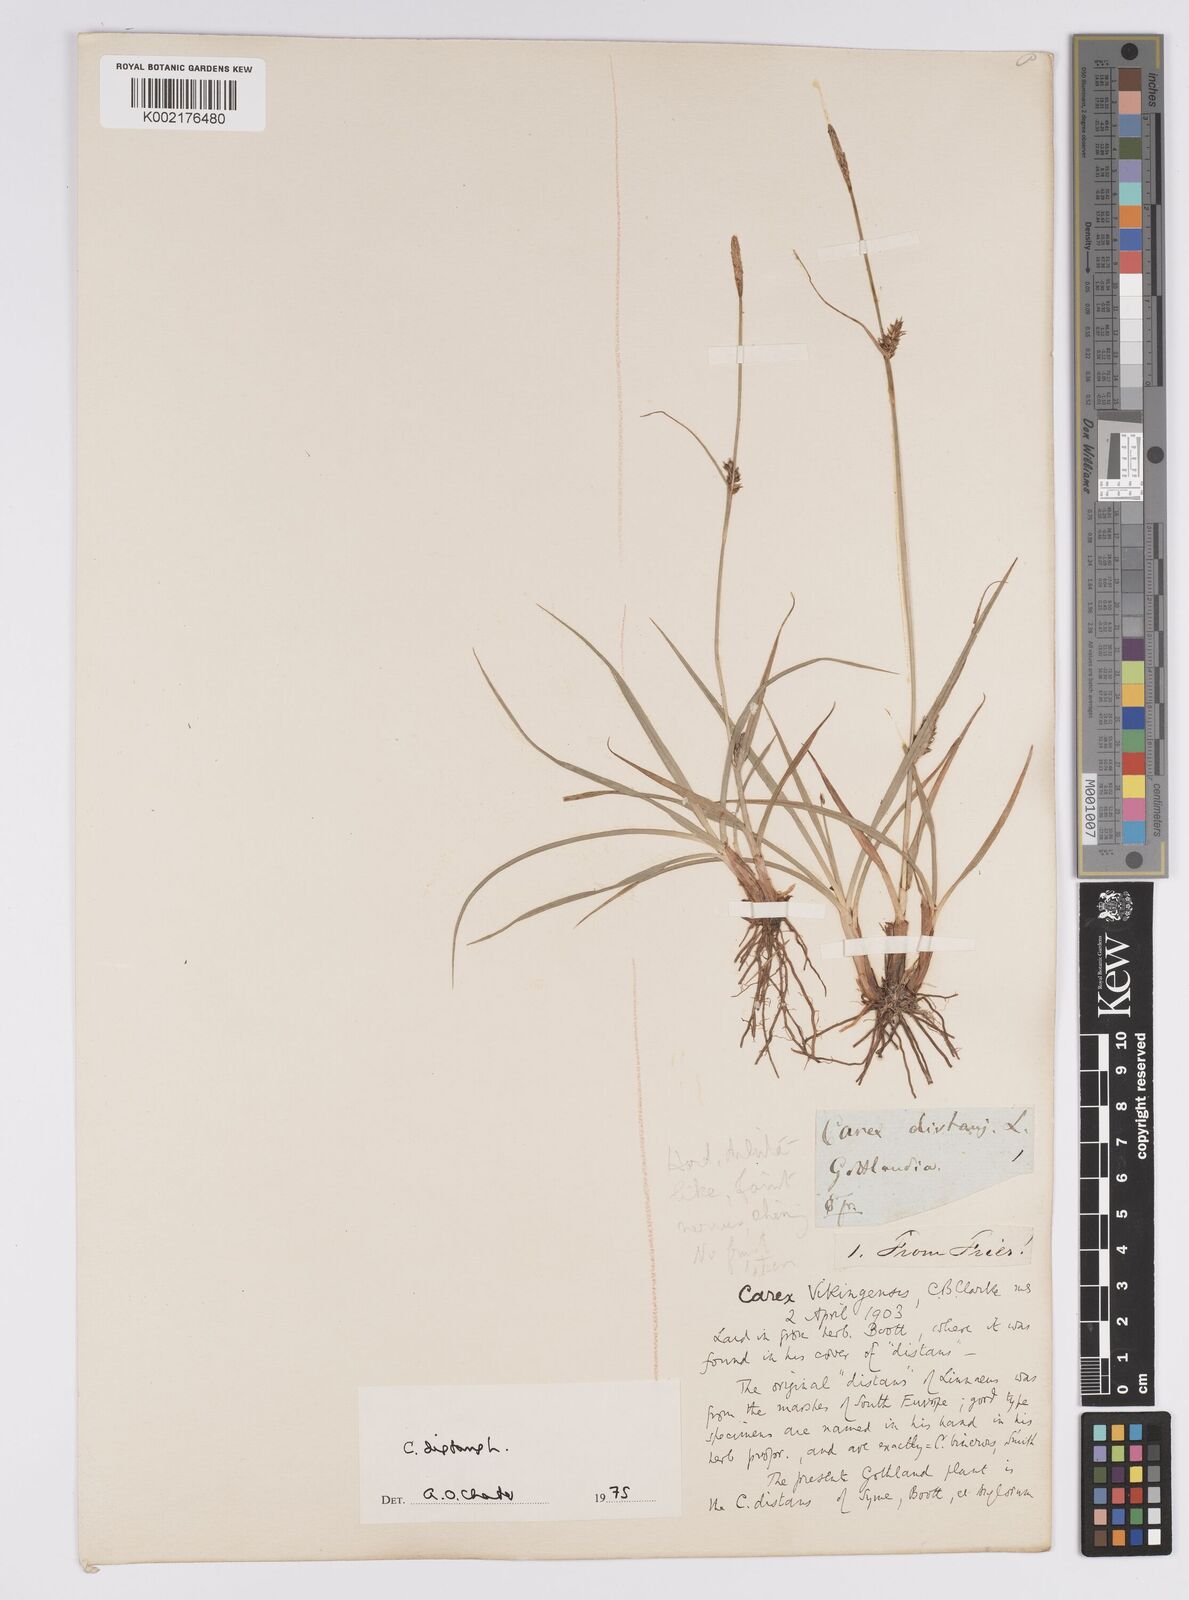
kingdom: Plantae
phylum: Tracheophyta
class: Liliopsida
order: Poales
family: Cyperaceae
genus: Carex
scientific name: Carex distans
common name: Distant sedge
